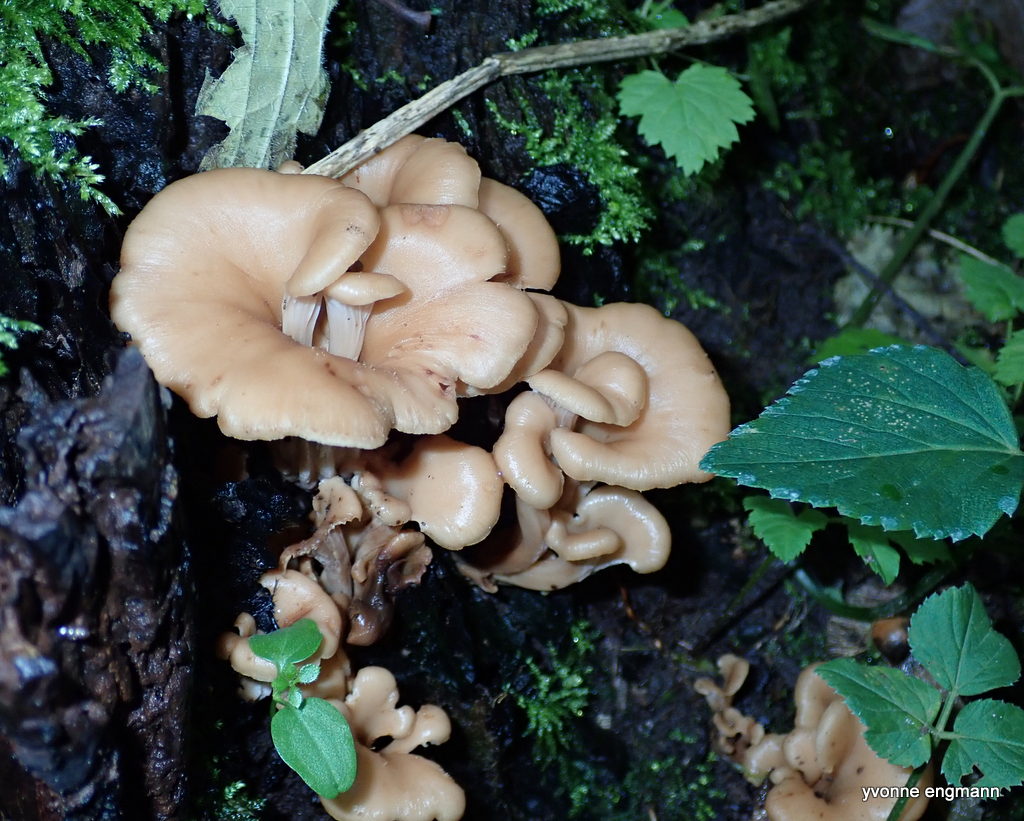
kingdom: Fungi
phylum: Basidiomycota
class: Agaricomycetes
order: Russulales
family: Auriscalpiaceae
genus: Lentinellus
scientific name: Lentinellus cochleatus
